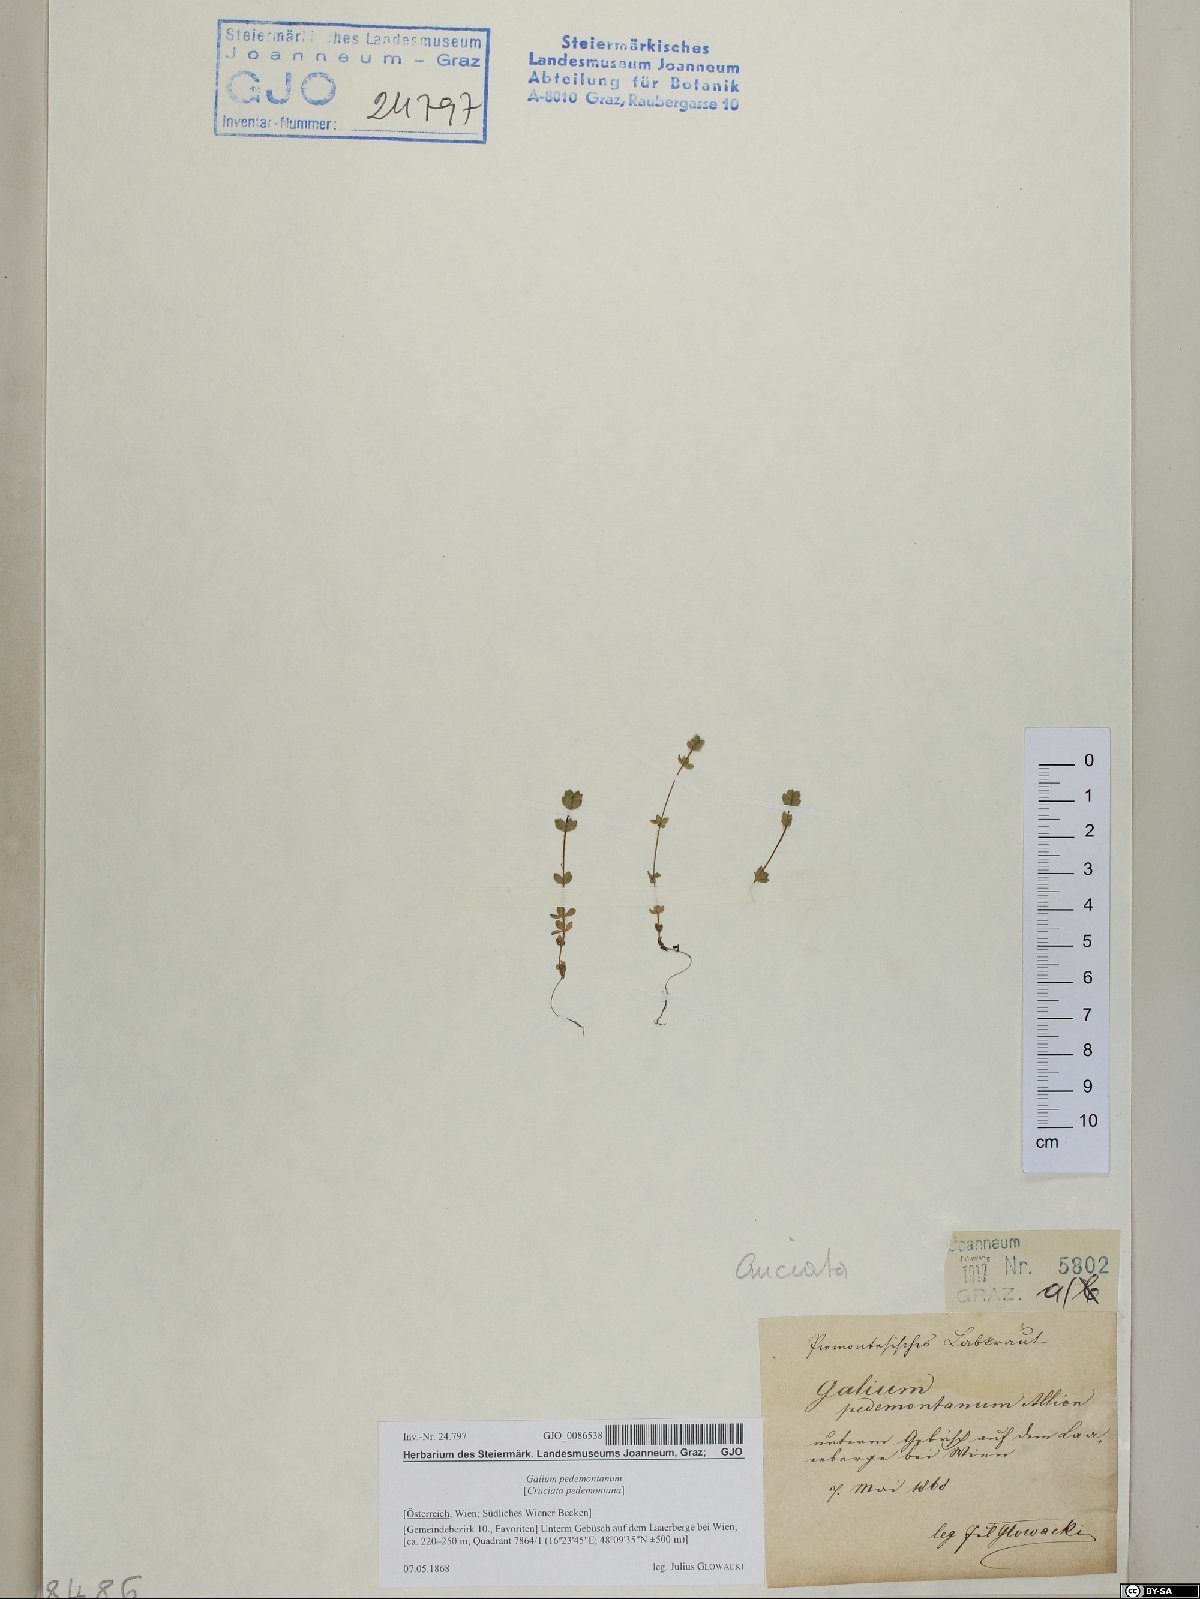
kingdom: Plantae
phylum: Tracheophyta
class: Magnoliopsida
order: Gentianales
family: Rubiaceae
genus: Cruciata
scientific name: Cruciata pedemontana
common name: Piedmont bedstraw
